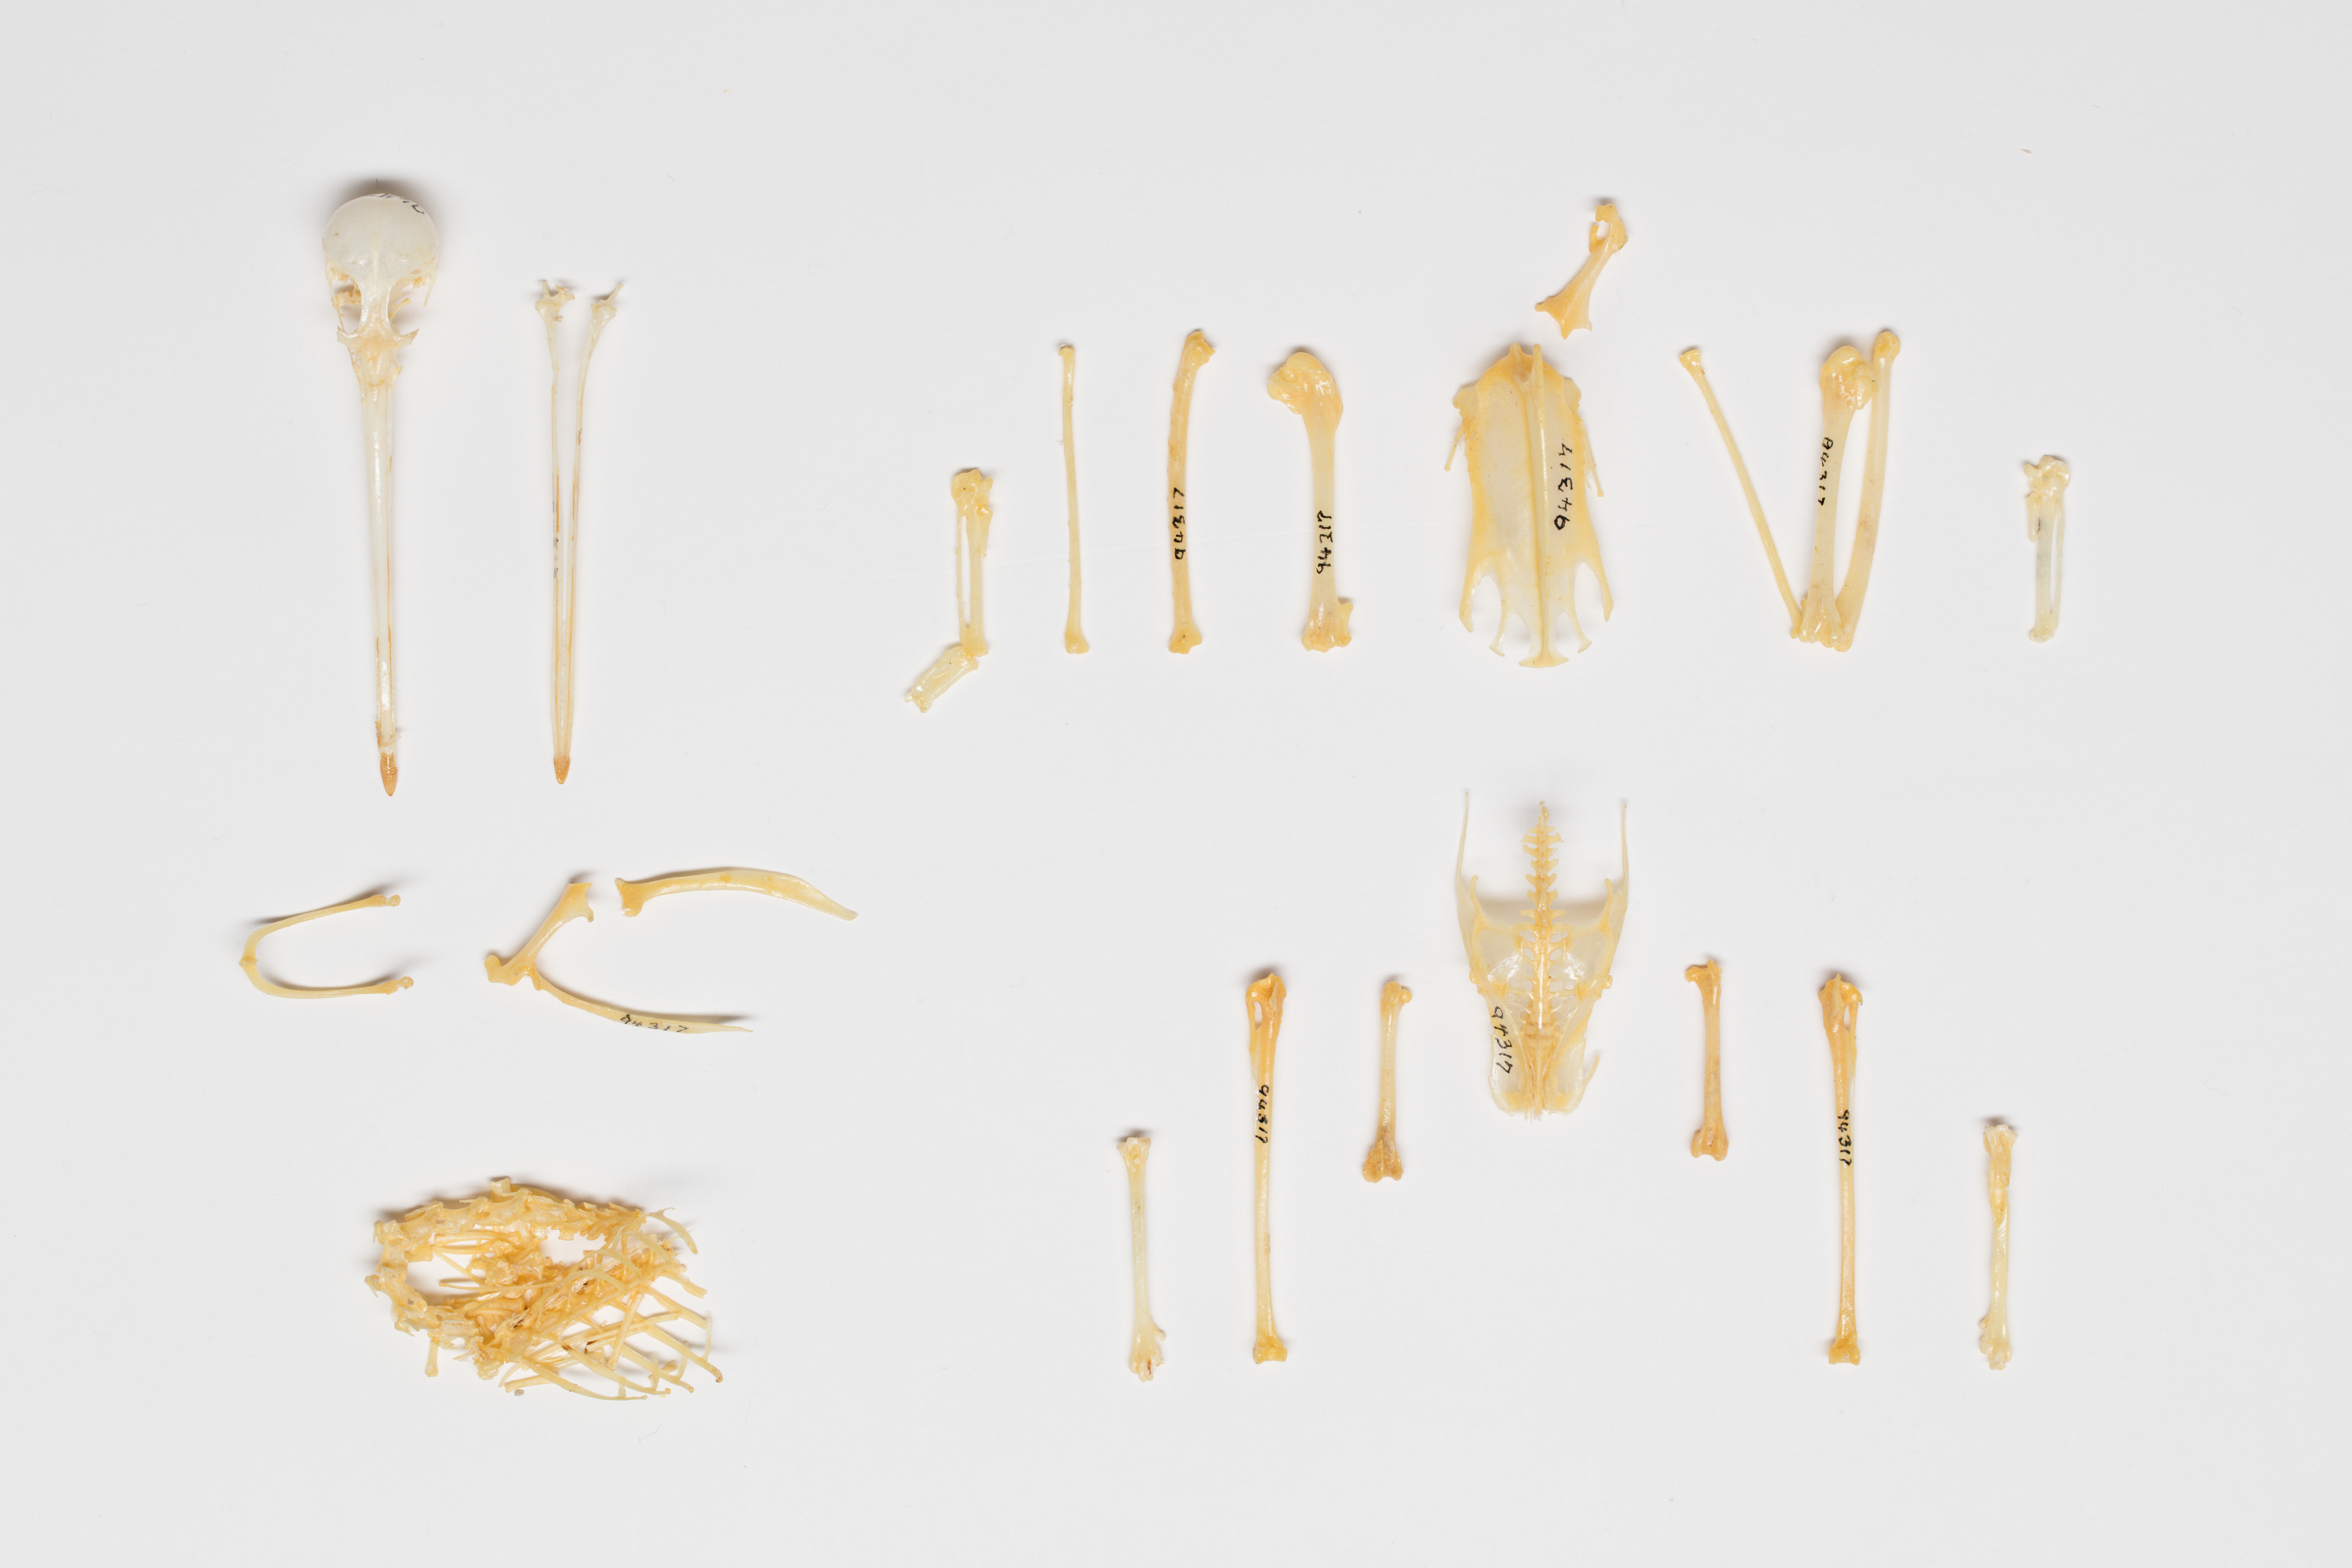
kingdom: Animalia
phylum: Chordata
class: Aves
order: Charadriiformes
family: Scolopacidae
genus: Limnodromus
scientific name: Limnodromus griseus
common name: Short-billed dowitcher
